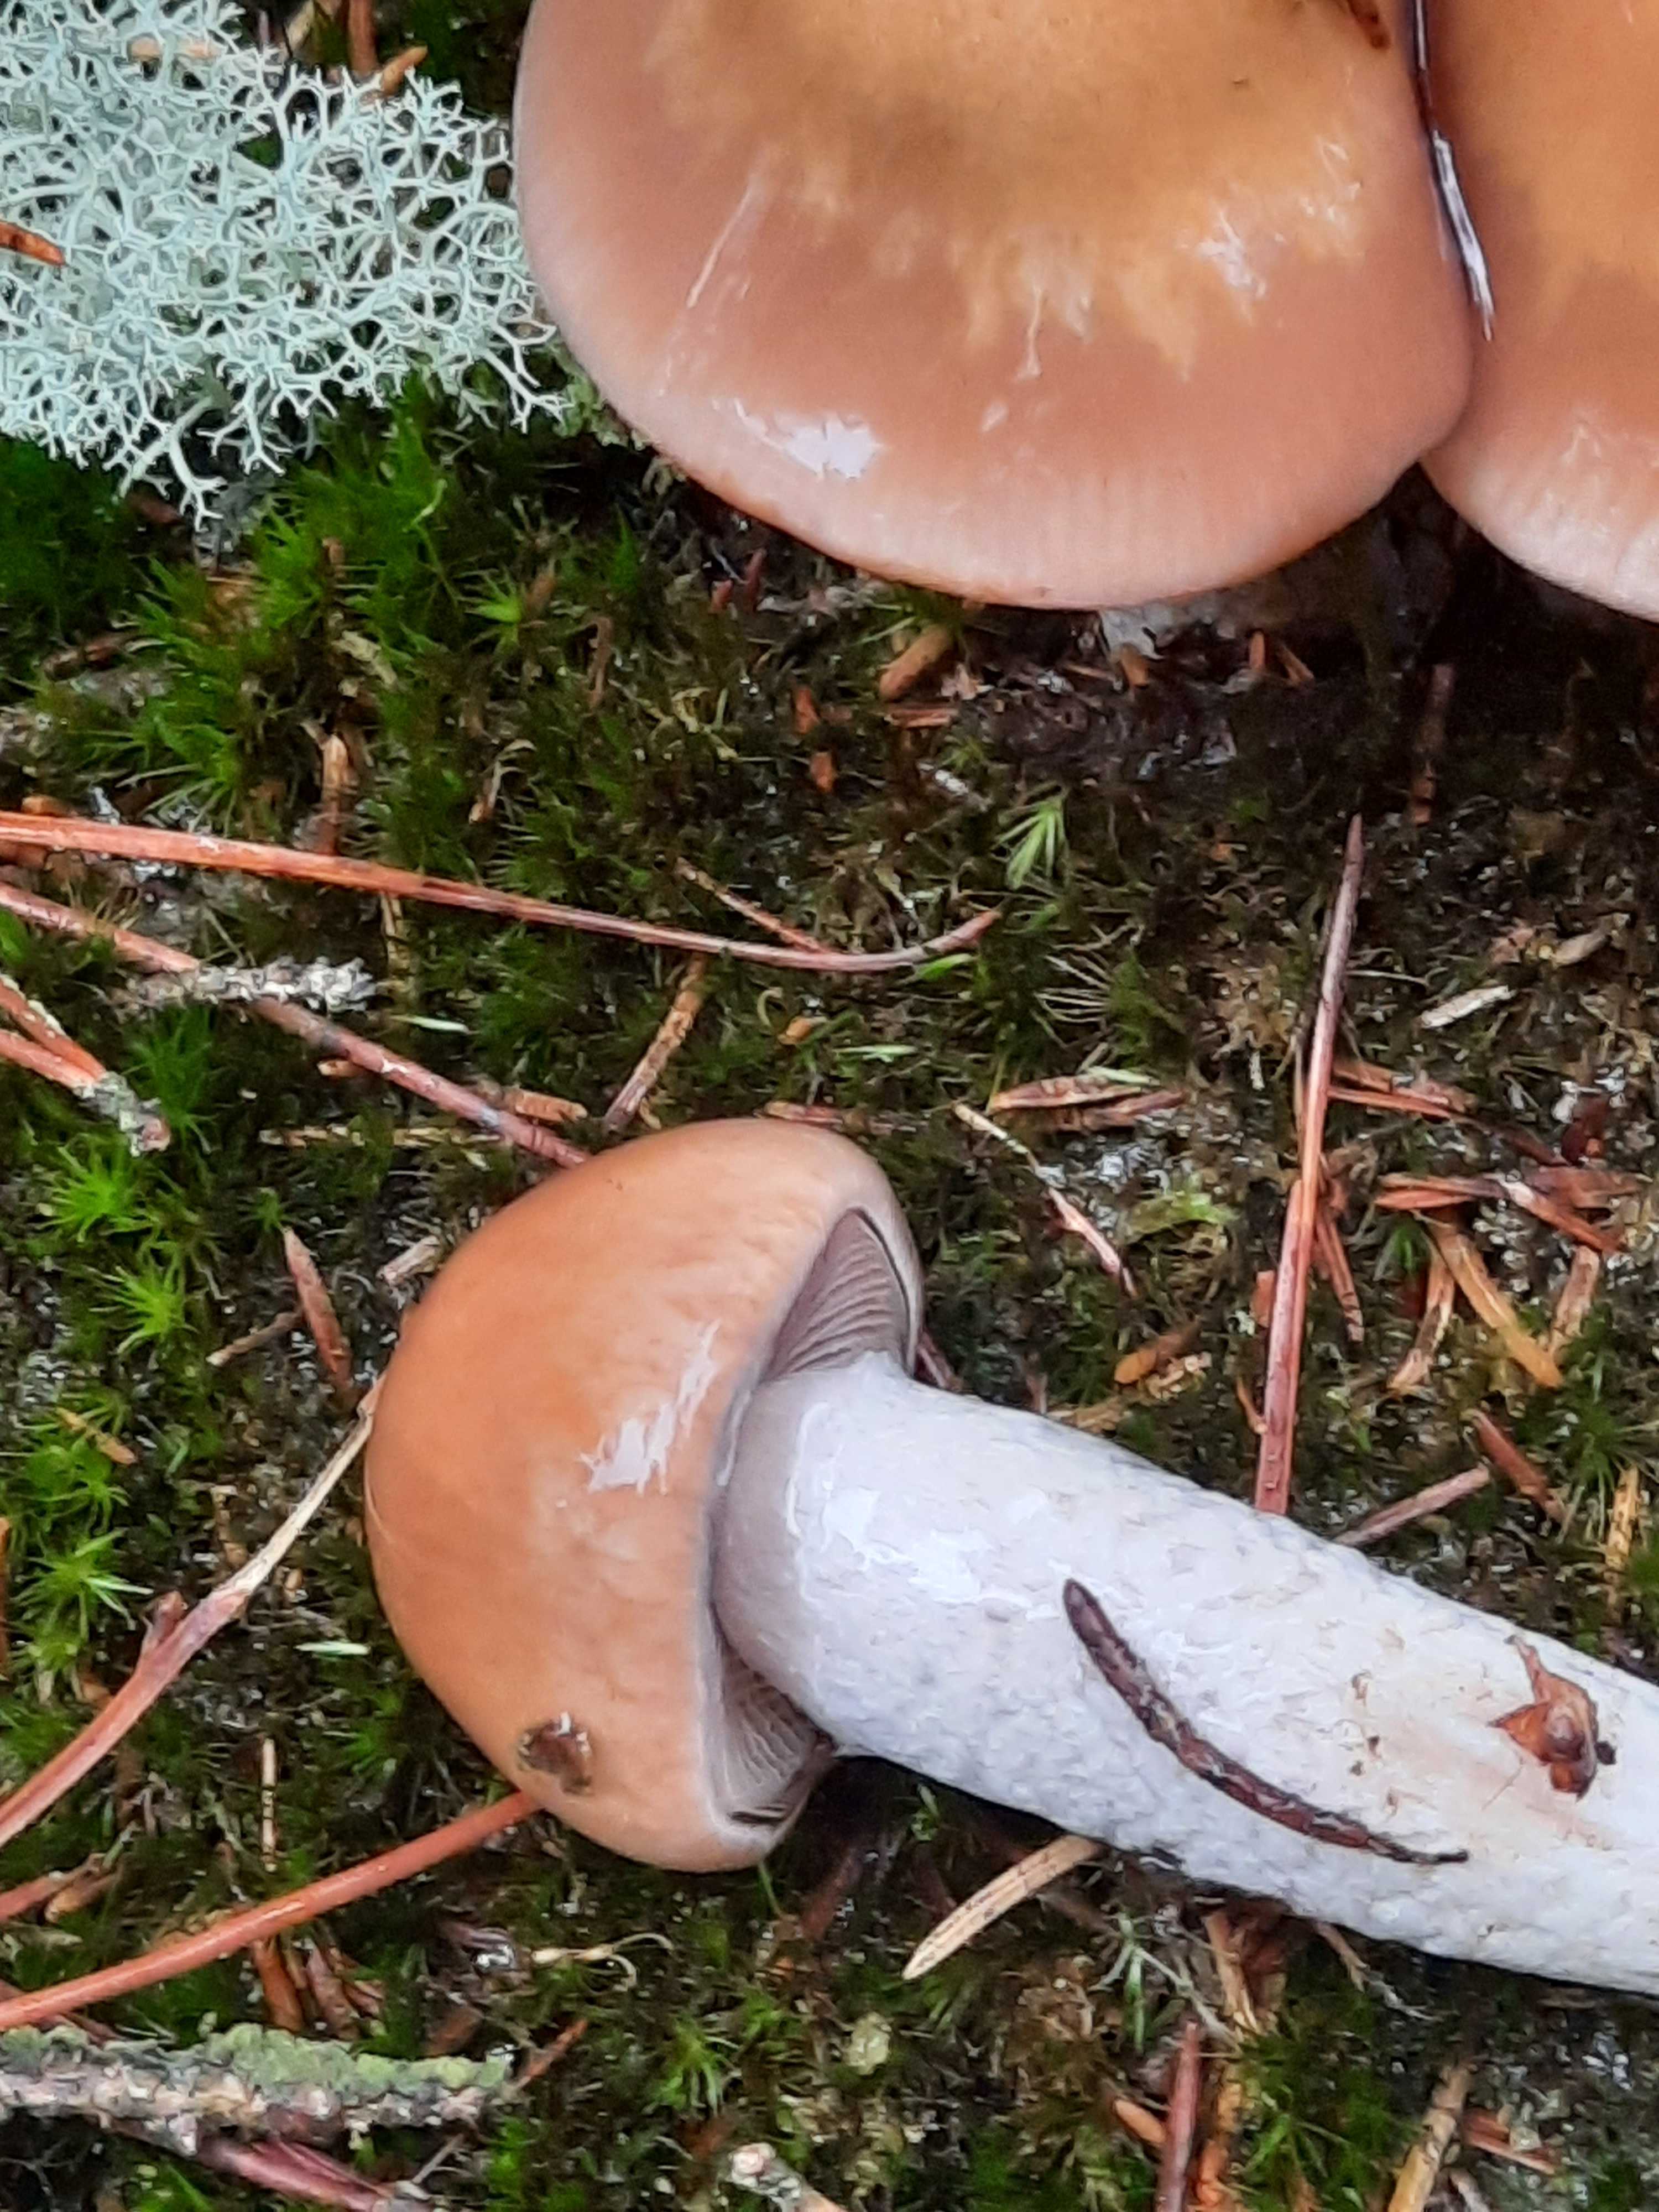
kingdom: Fungi
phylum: Basidiomycota
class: Agaricomycetes
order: Agaricales
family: Cortinariaceae
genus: Cortinarius
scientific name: Cortinarius stillatitius
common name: honningduftende slørhat
